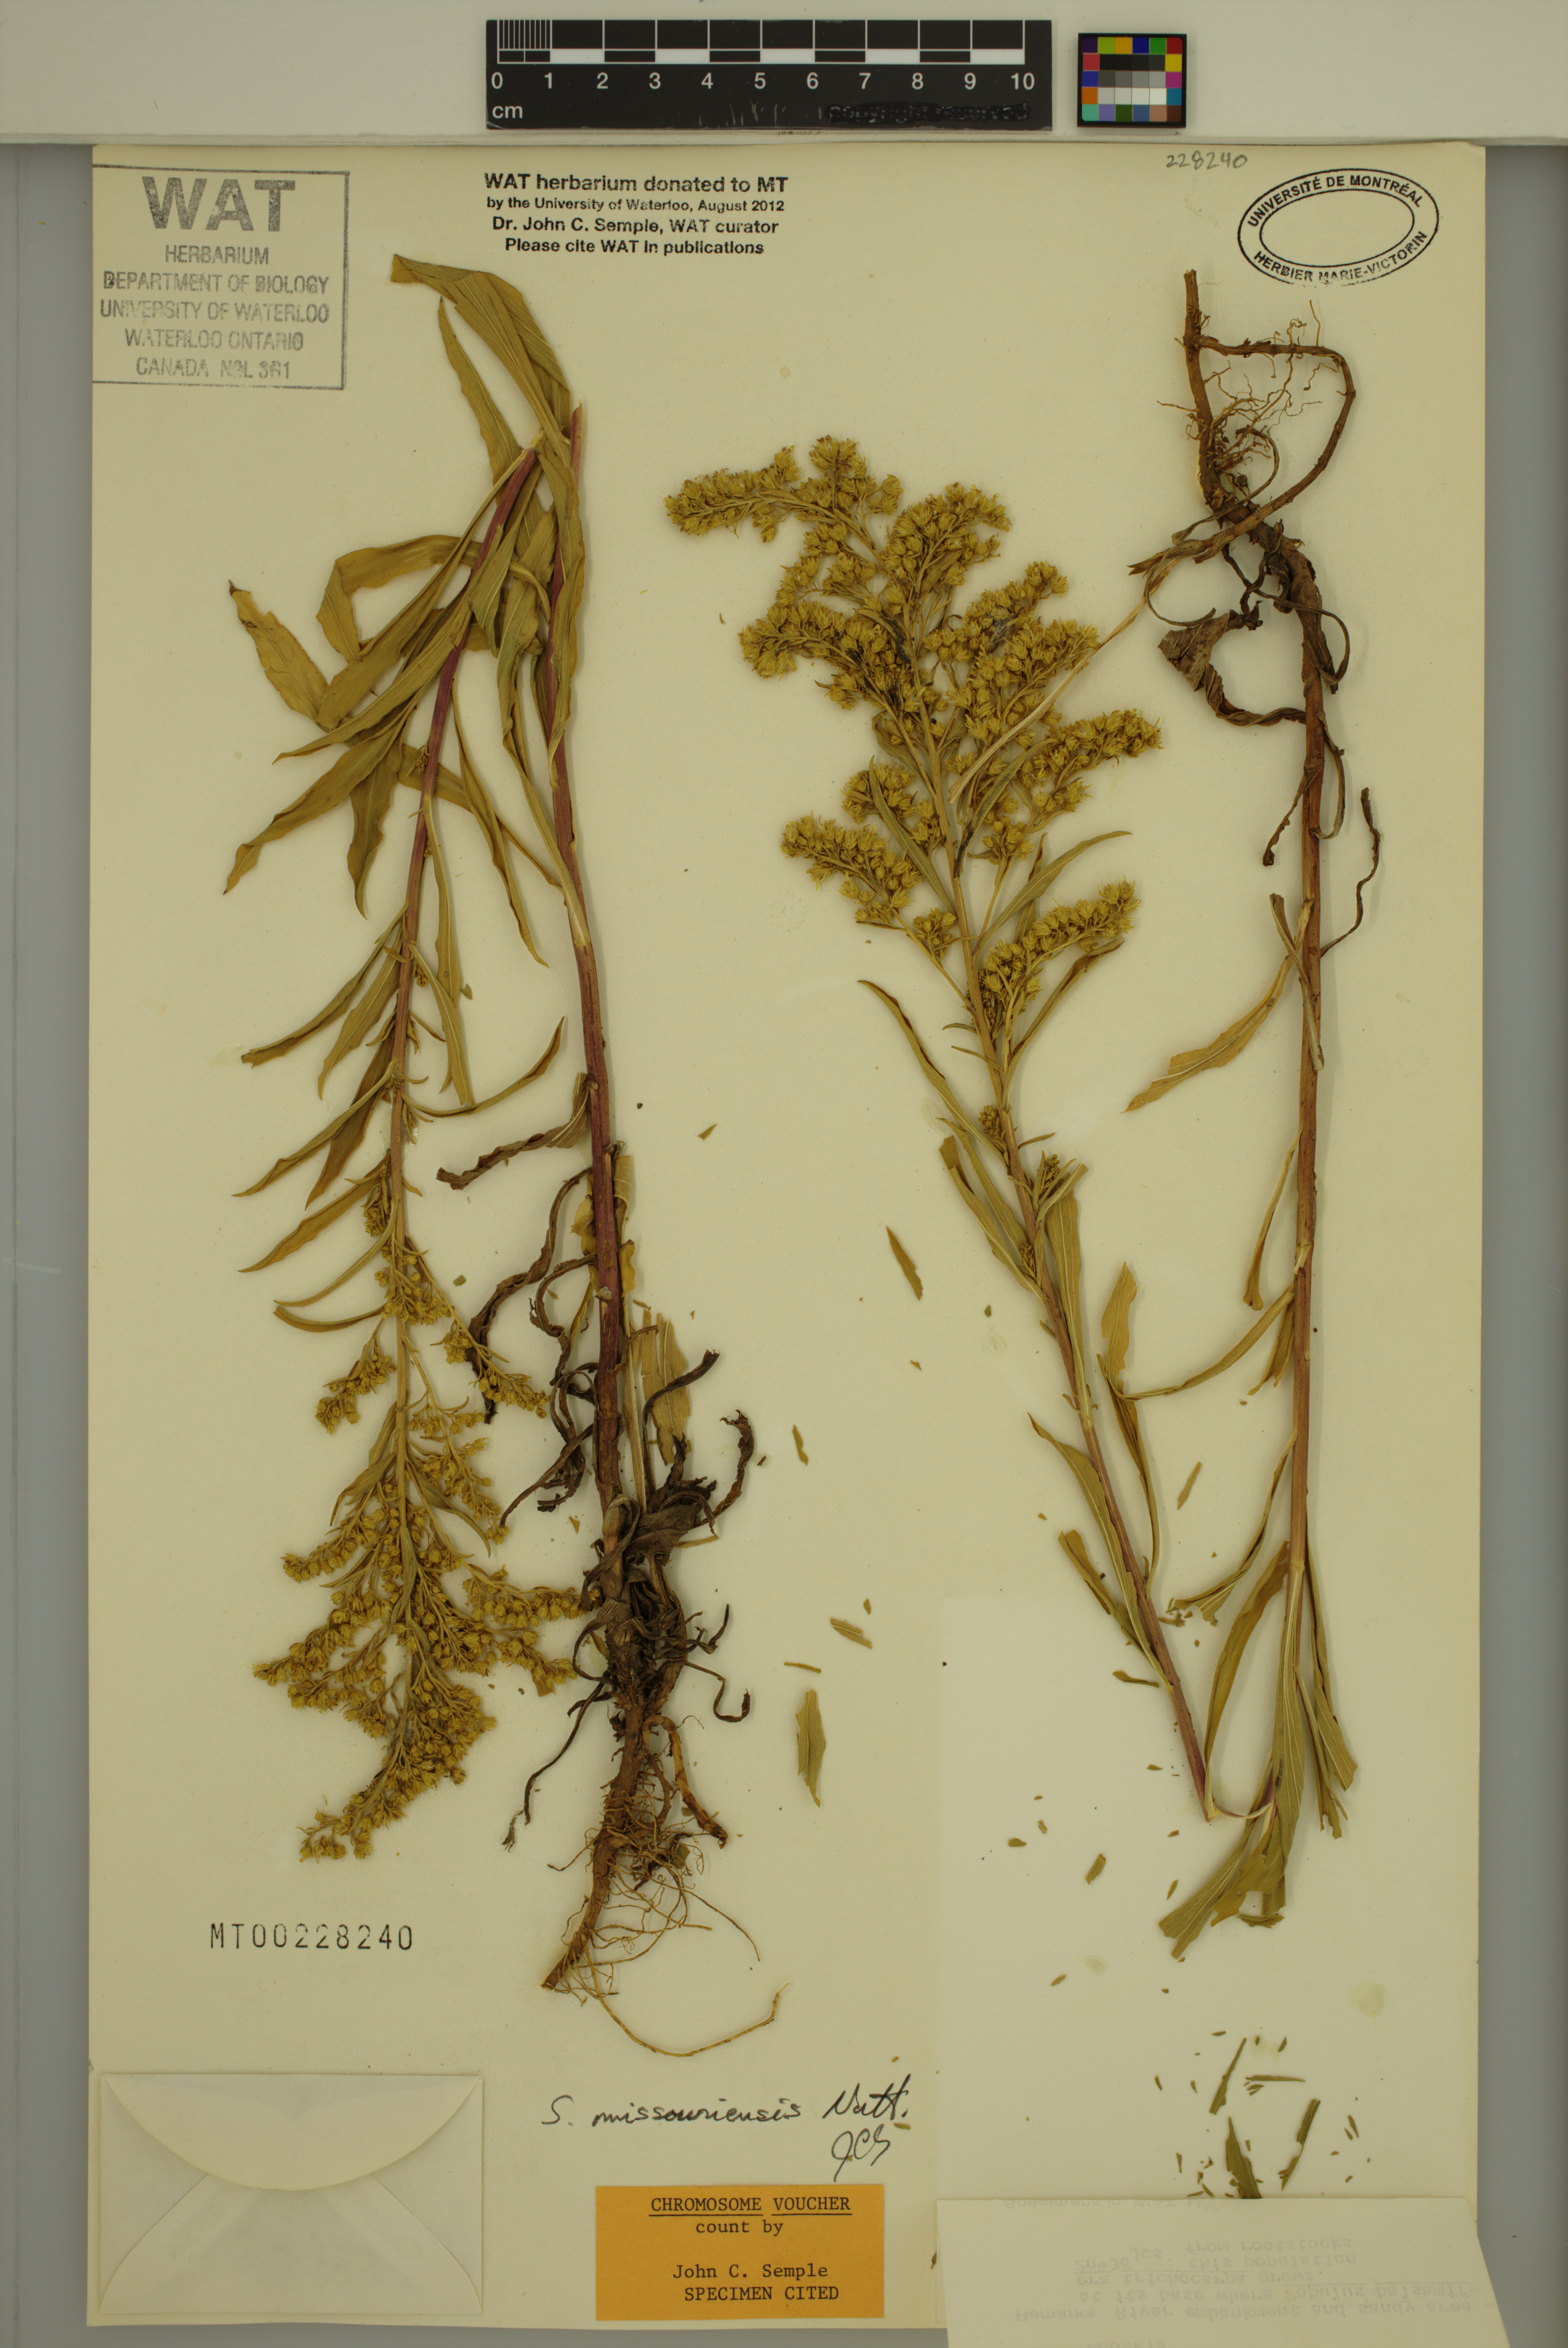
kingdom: Plantae
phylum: Tracheophyta
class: Magnoliopsida
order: Asterales
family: Asteraceae
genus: Solidago
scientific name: Solidago missouriensis
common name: Prairie goldenrod
